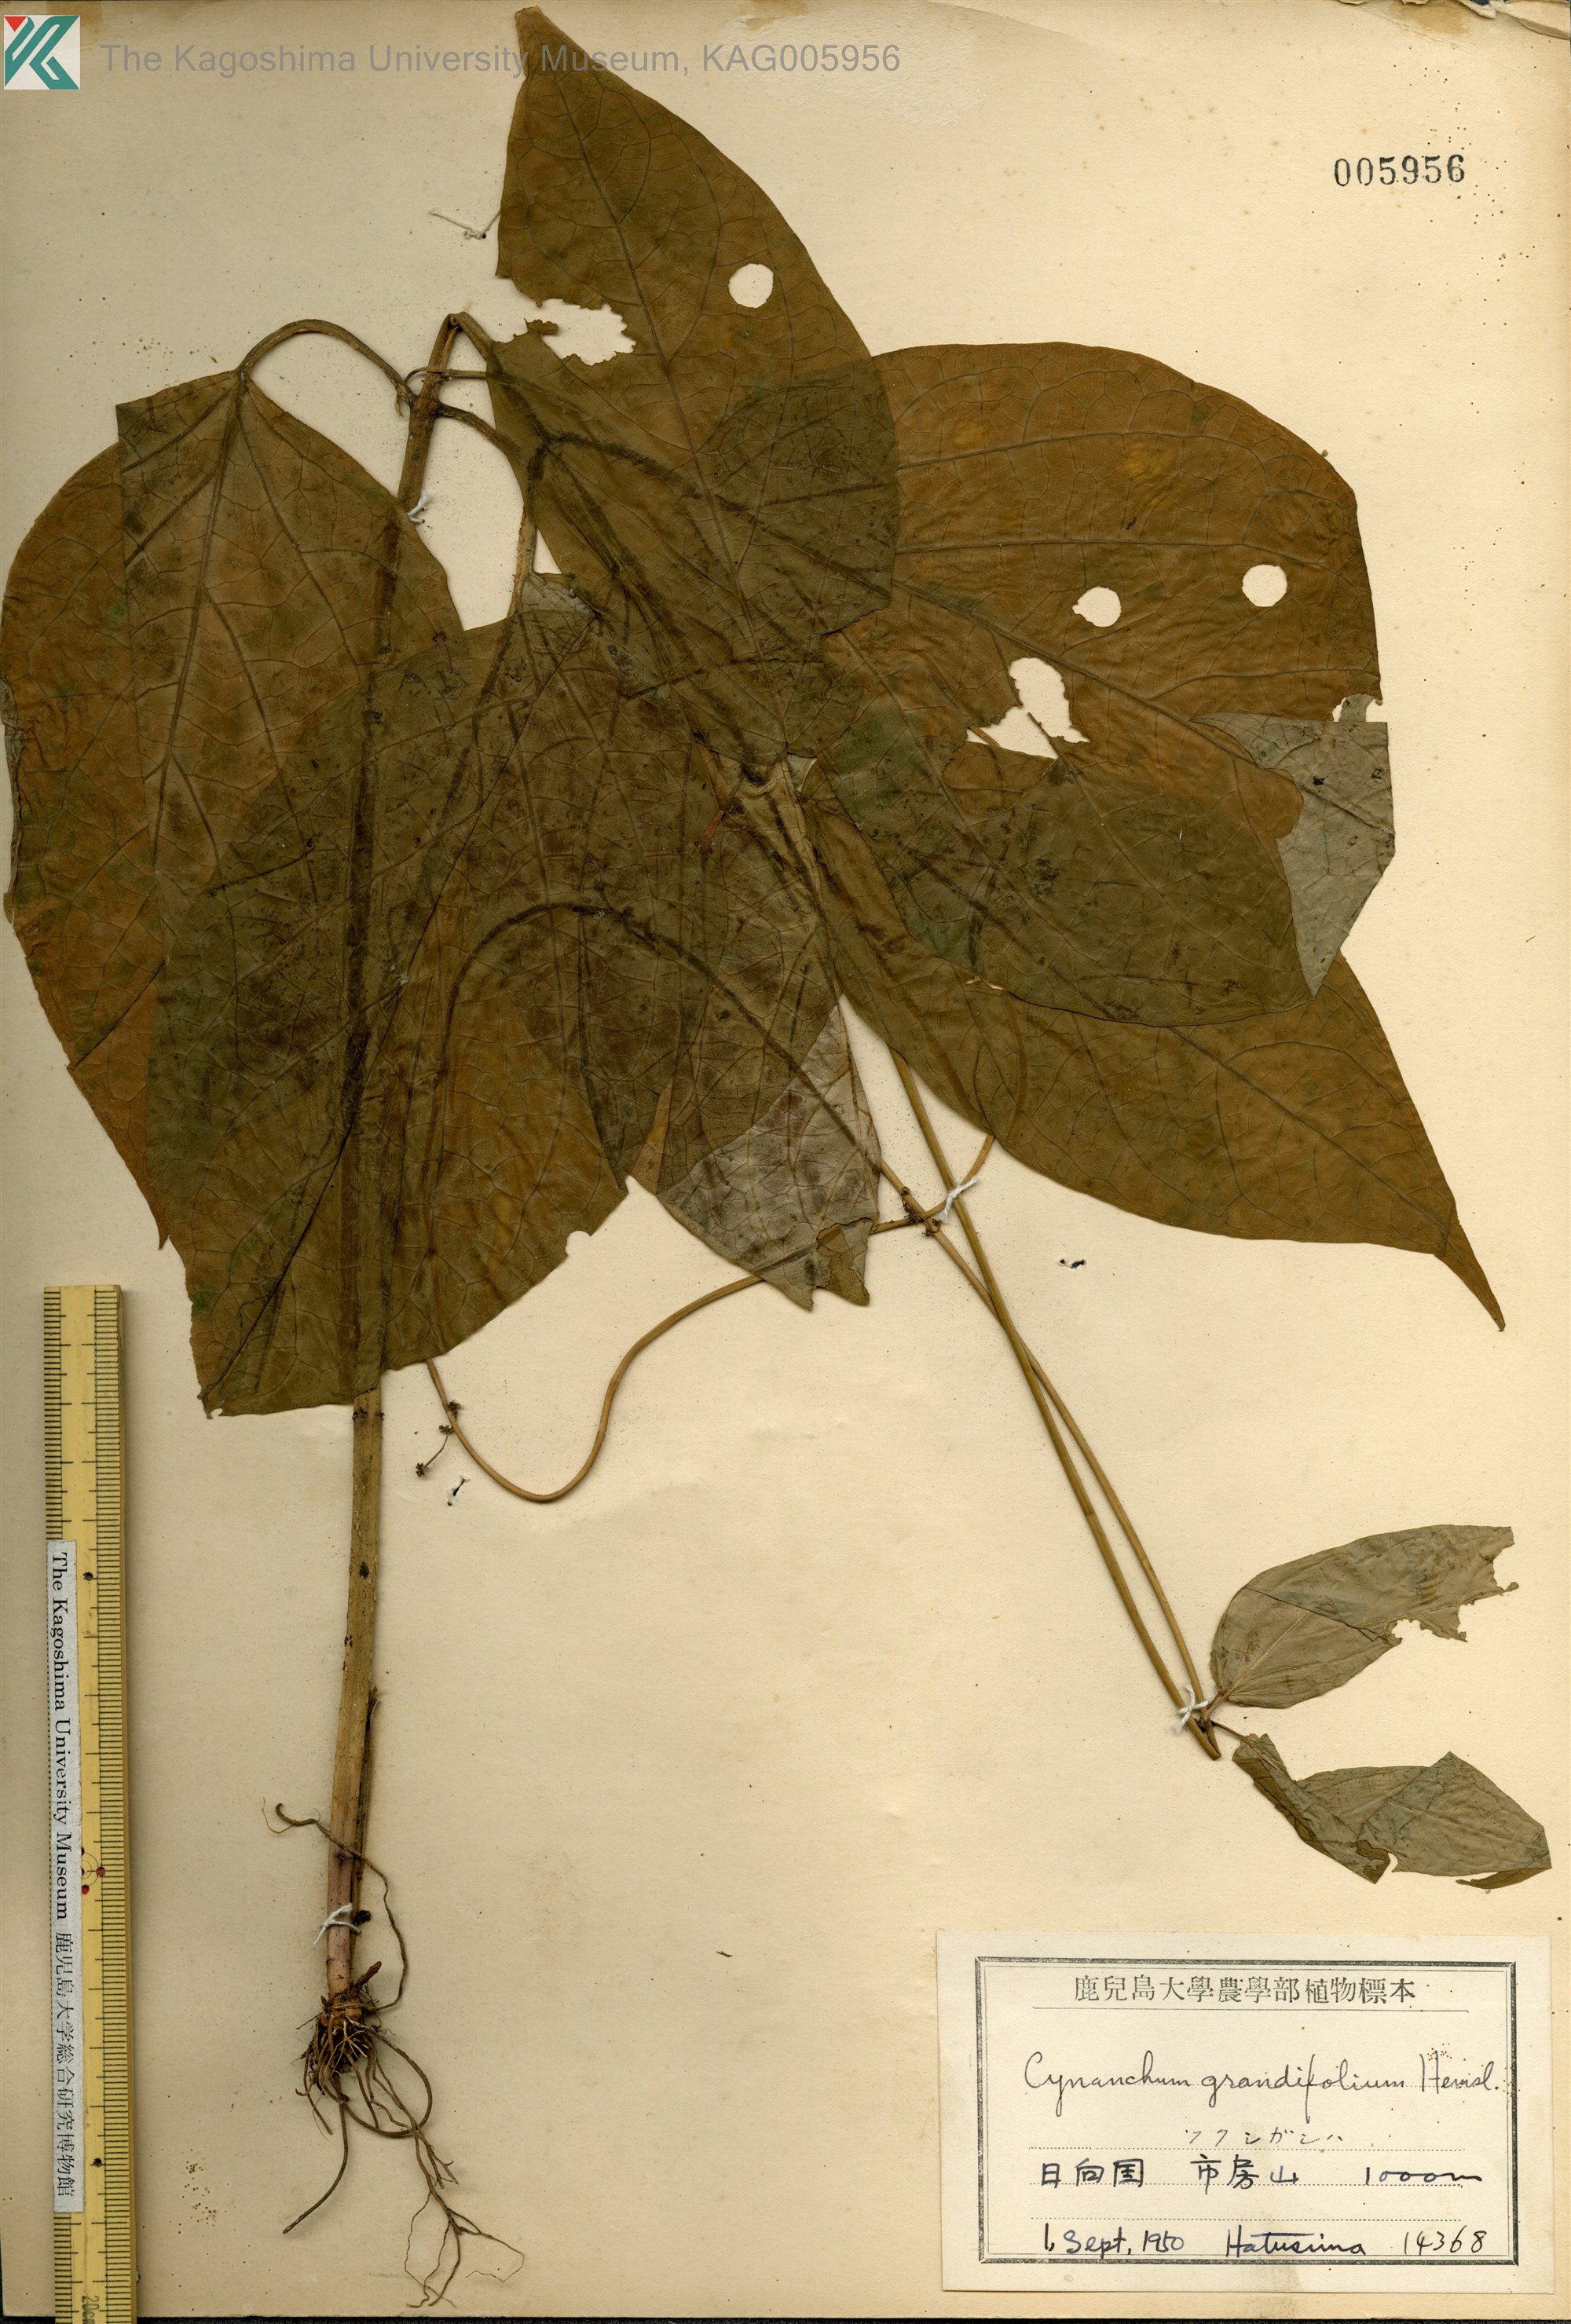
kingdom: Plantae
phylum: Tracheophyta
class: Magnoliopsida
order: Gentianales
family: Apocynaceae
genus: Vincetoxicum
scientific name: Vincetoxicum macrophyllum
